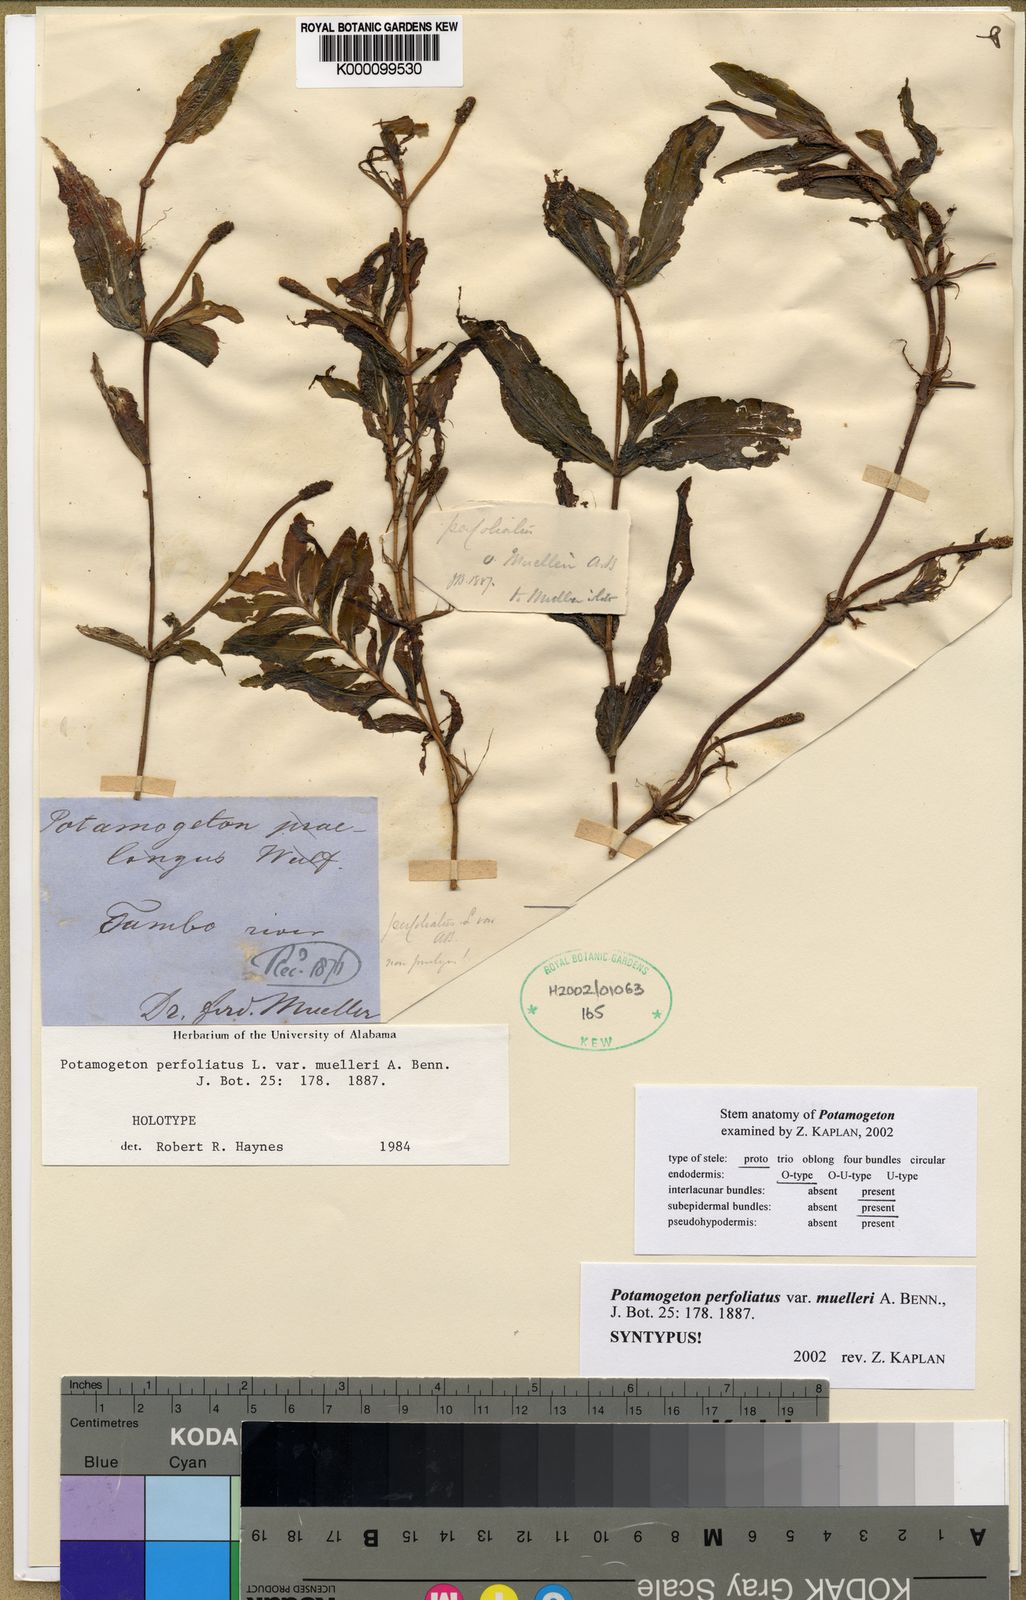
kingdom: Plantae
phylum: Tracheophyta
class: Liliopsida
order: Alismatales
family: Potamogetonaceae
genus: Potamogeton
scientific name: Potamogeton perfoliatus
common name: Perfoliate pondweed
